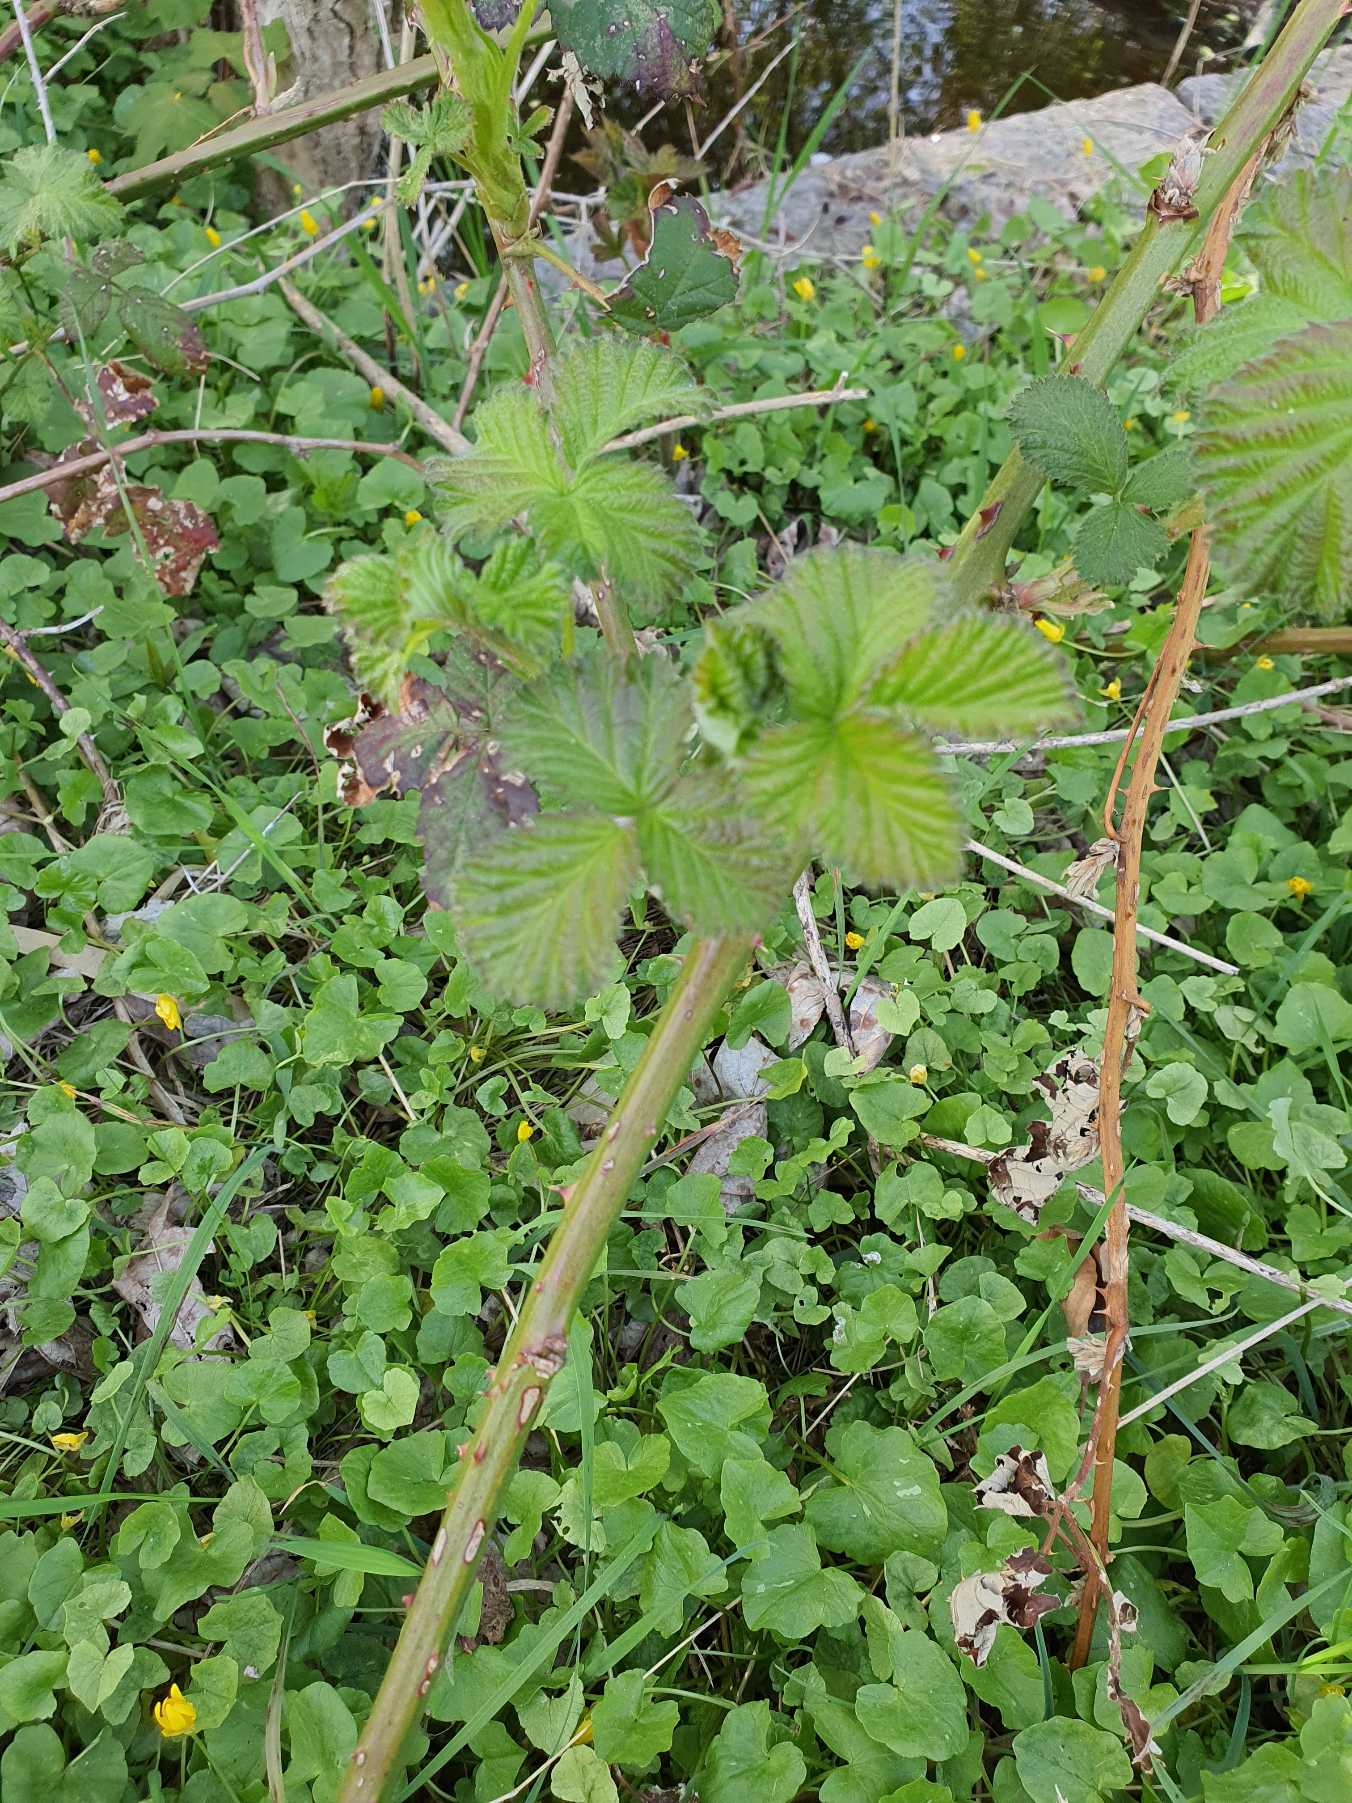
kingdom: Plantae
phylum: Tracheophyta
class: Magnoliopsida
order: Rosales
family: Rosaceae
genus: Rubus
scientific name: Rubus
